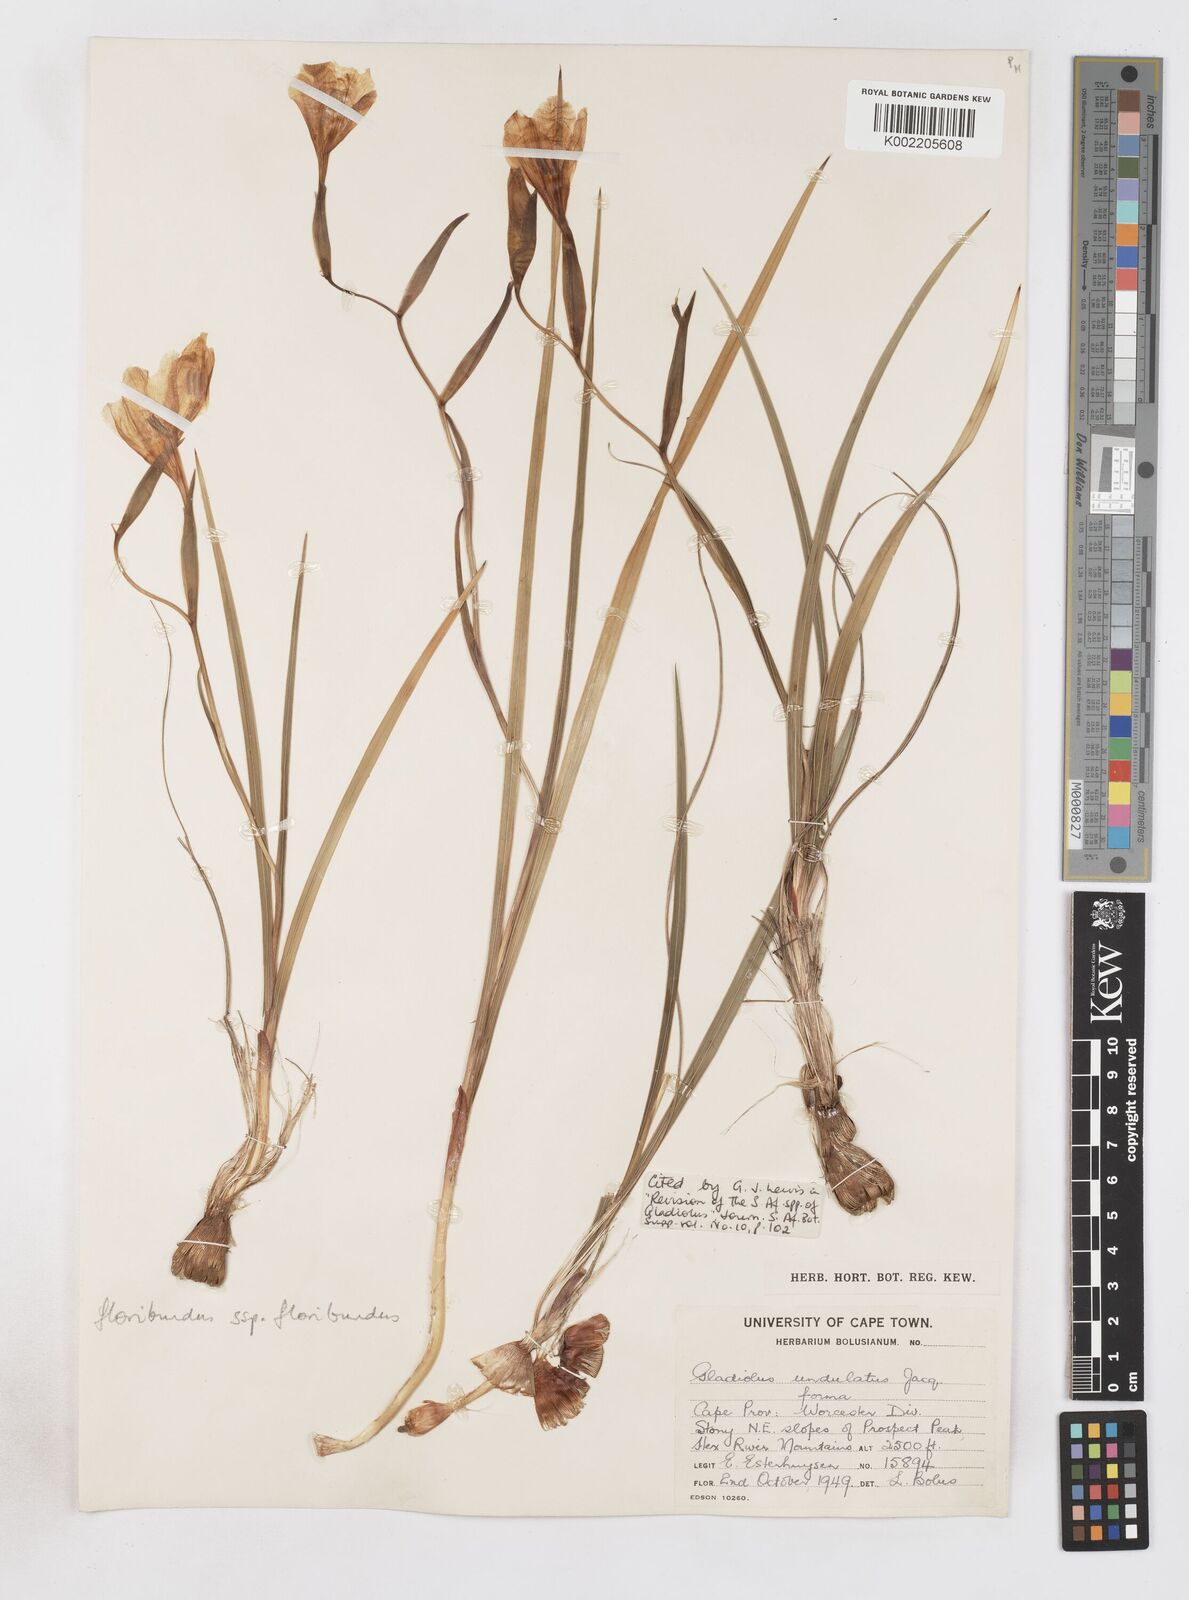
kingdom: Plantae
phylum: Tracheophyta
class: Liliopsida
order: Asparagales
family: Iridaceae
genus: Gladiolus
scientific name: Gladiolus floribundus
